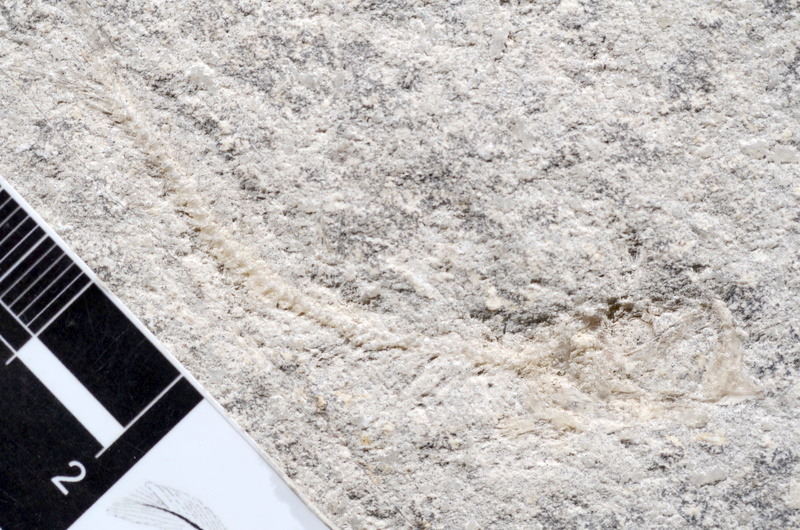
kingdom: Animalia
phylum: Chordata
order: Salmoniformes
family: Orthogonikleithridae
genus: Leptolepides
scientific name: Leptolepides sprattiformis
